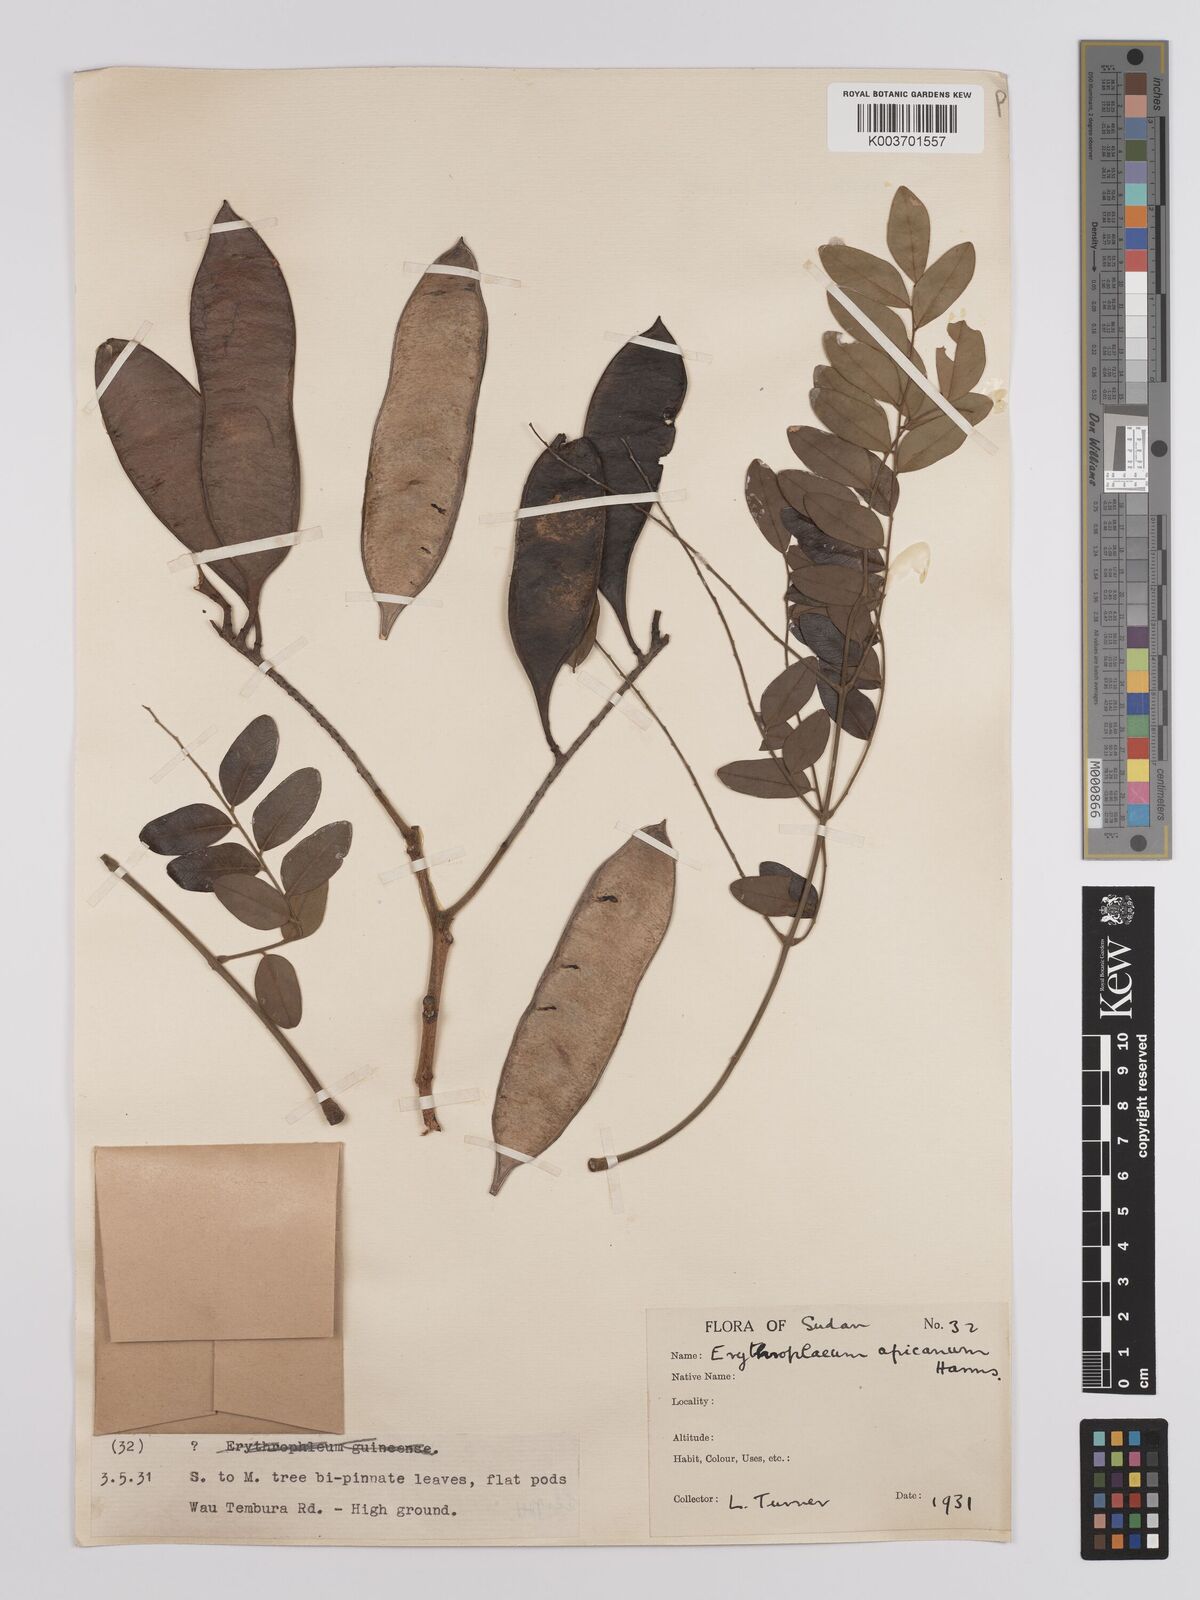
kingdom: Plantae
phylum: Tracheophyta
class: Magnoliopsida
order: Fabales
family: Fabaceae
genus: Erythrophleum
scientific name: Erythrophleum africanum
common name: African blackwood
